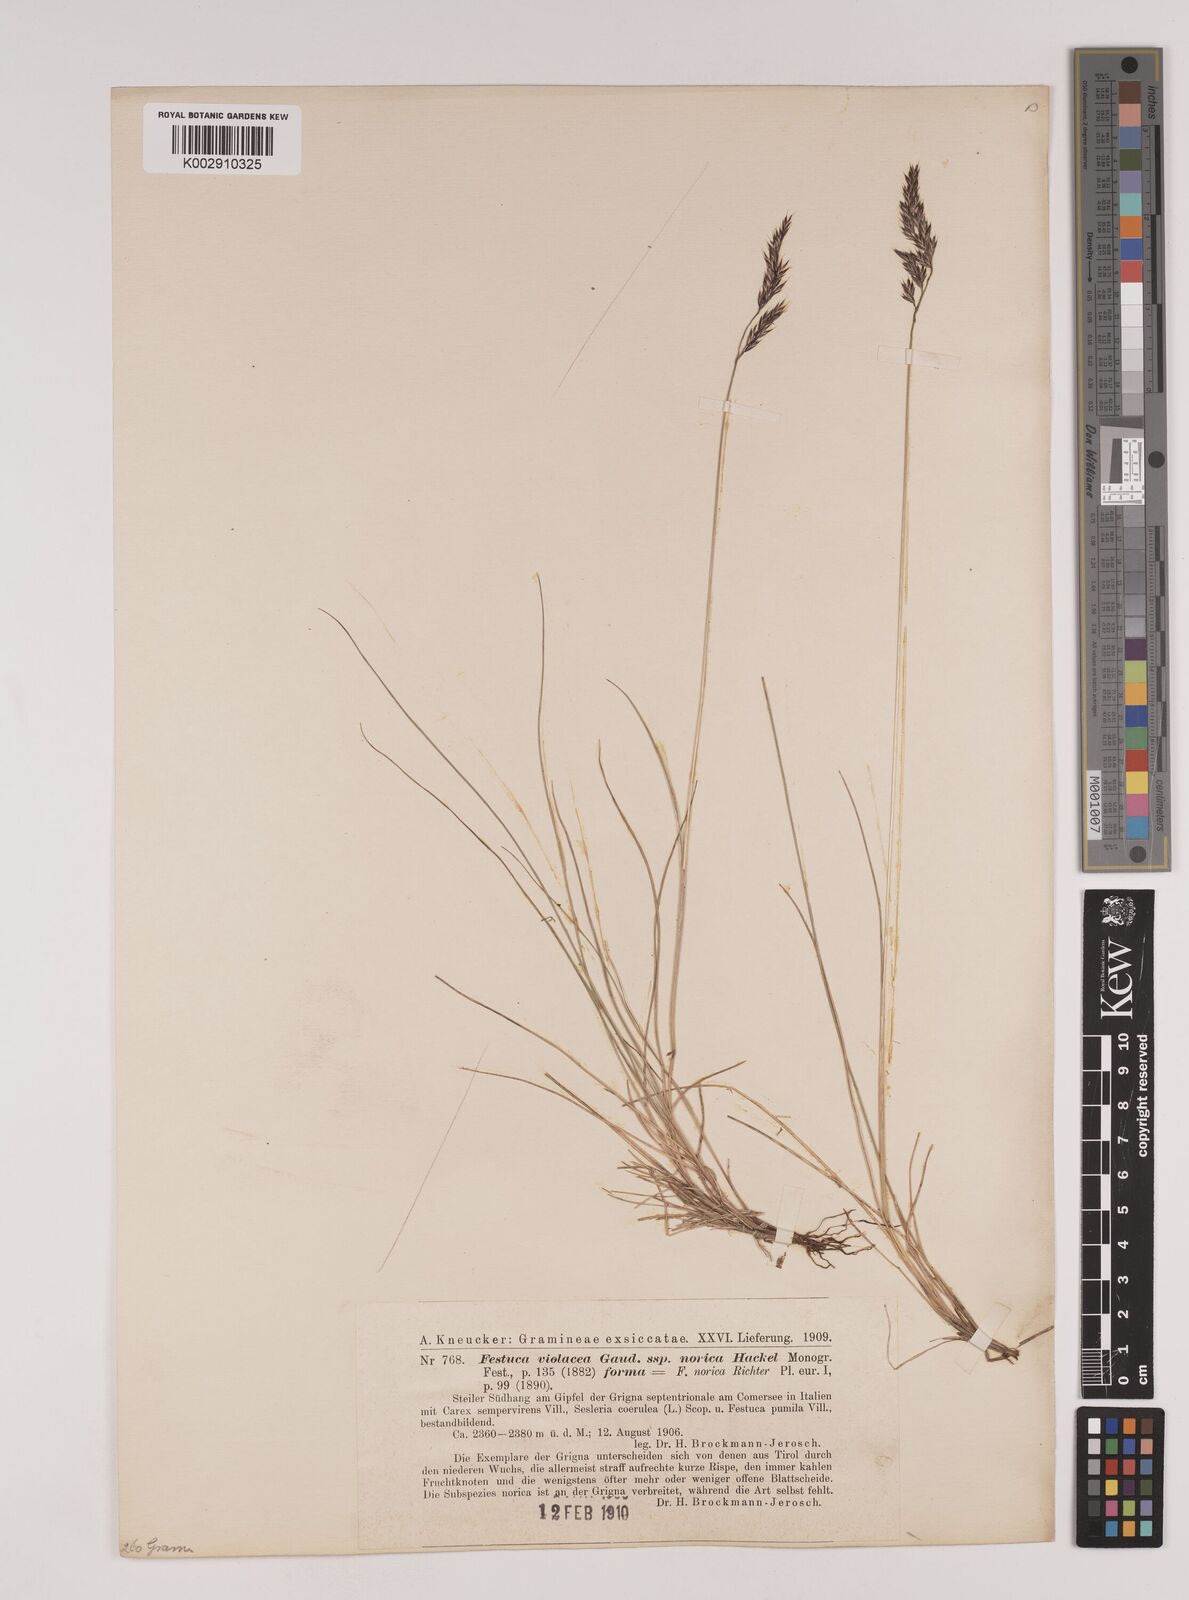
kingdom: Plantae
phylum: Tracheophyta
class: Liliopsida
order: Poales
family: Poaceae
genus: Festuca
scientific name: Festuca norica
